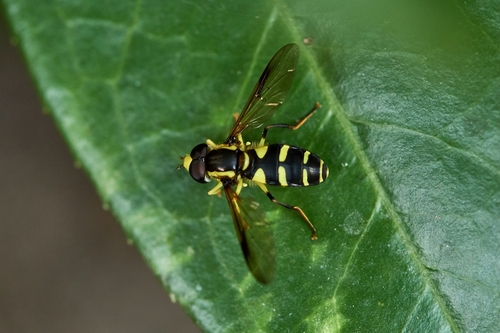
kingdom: Animalia
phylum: Arthropoda
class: Insecta
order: Diptera
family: Syrphidae
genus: Xanthogramma
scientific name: Xanthogramma
